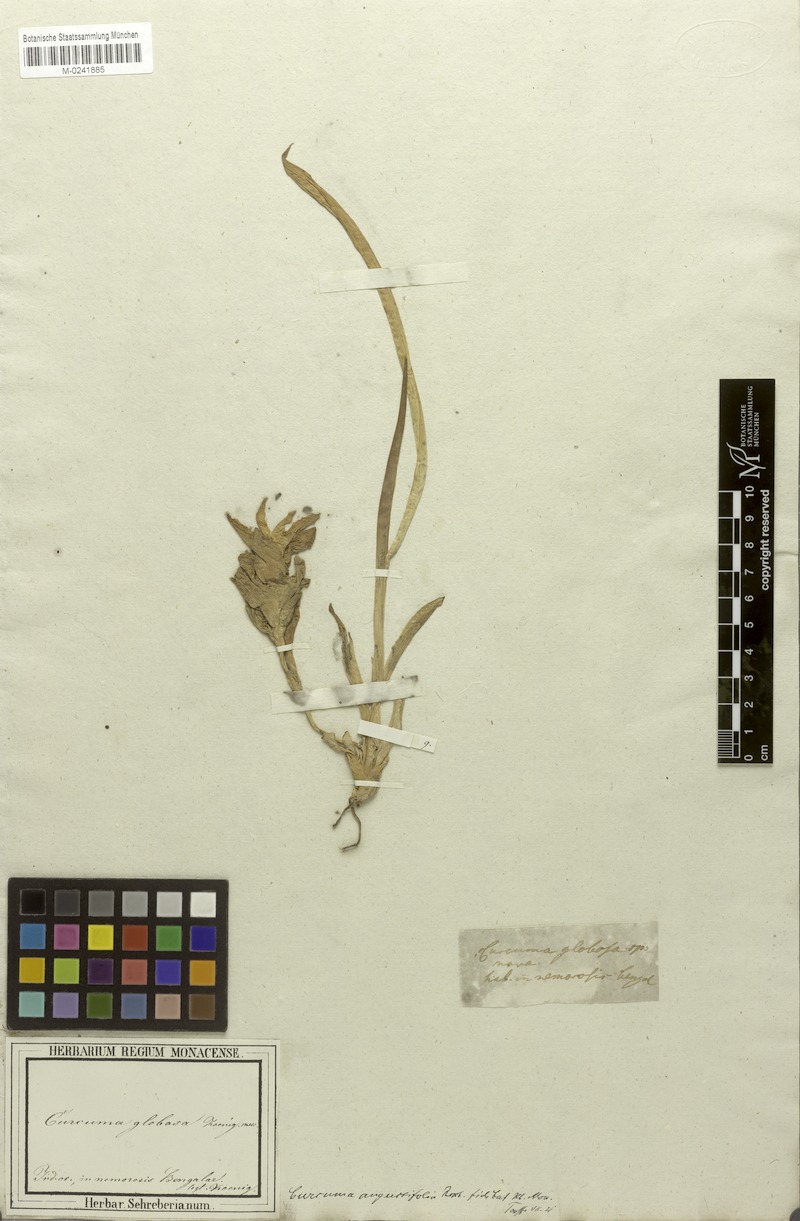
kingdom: Plantae
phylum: Tracheophyta
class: Liliopsida
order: Zingiberales
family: Zingiberaceae
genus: Curcuma
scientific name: Curcuma angustifolia
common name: East indian arrowroot
